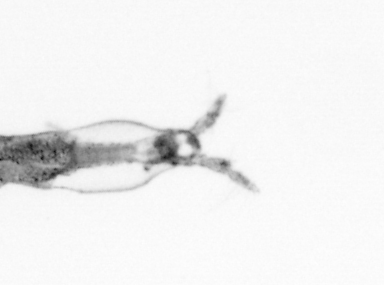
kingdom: Animalia
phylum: Arthropoda
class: Copepoda
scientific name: Copepoda
